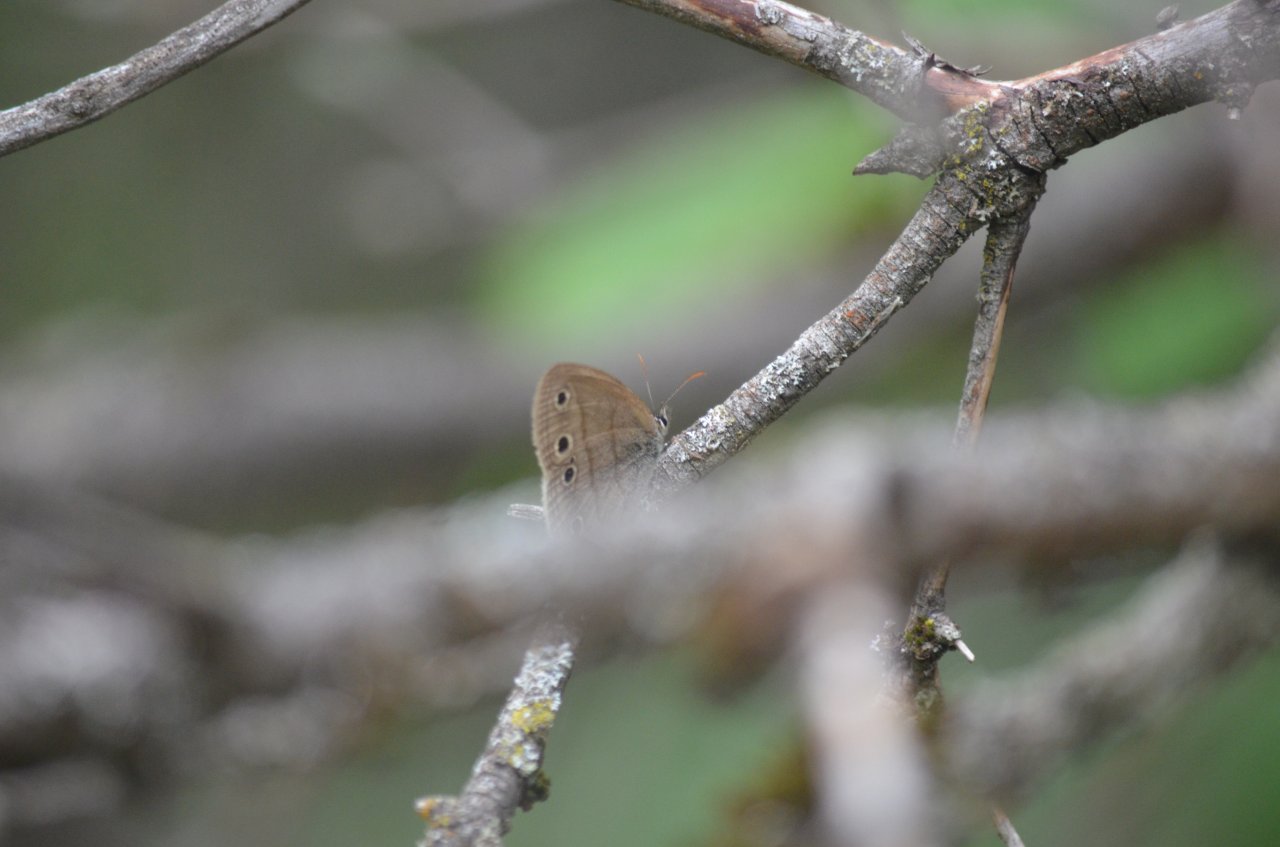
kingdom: Animalia
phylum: Arthropoda
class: Insecta
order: Lepidoptera
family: Nymphalidae
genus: Euptychia
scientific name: Euptychia cymela
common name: Little Wood Satyr
